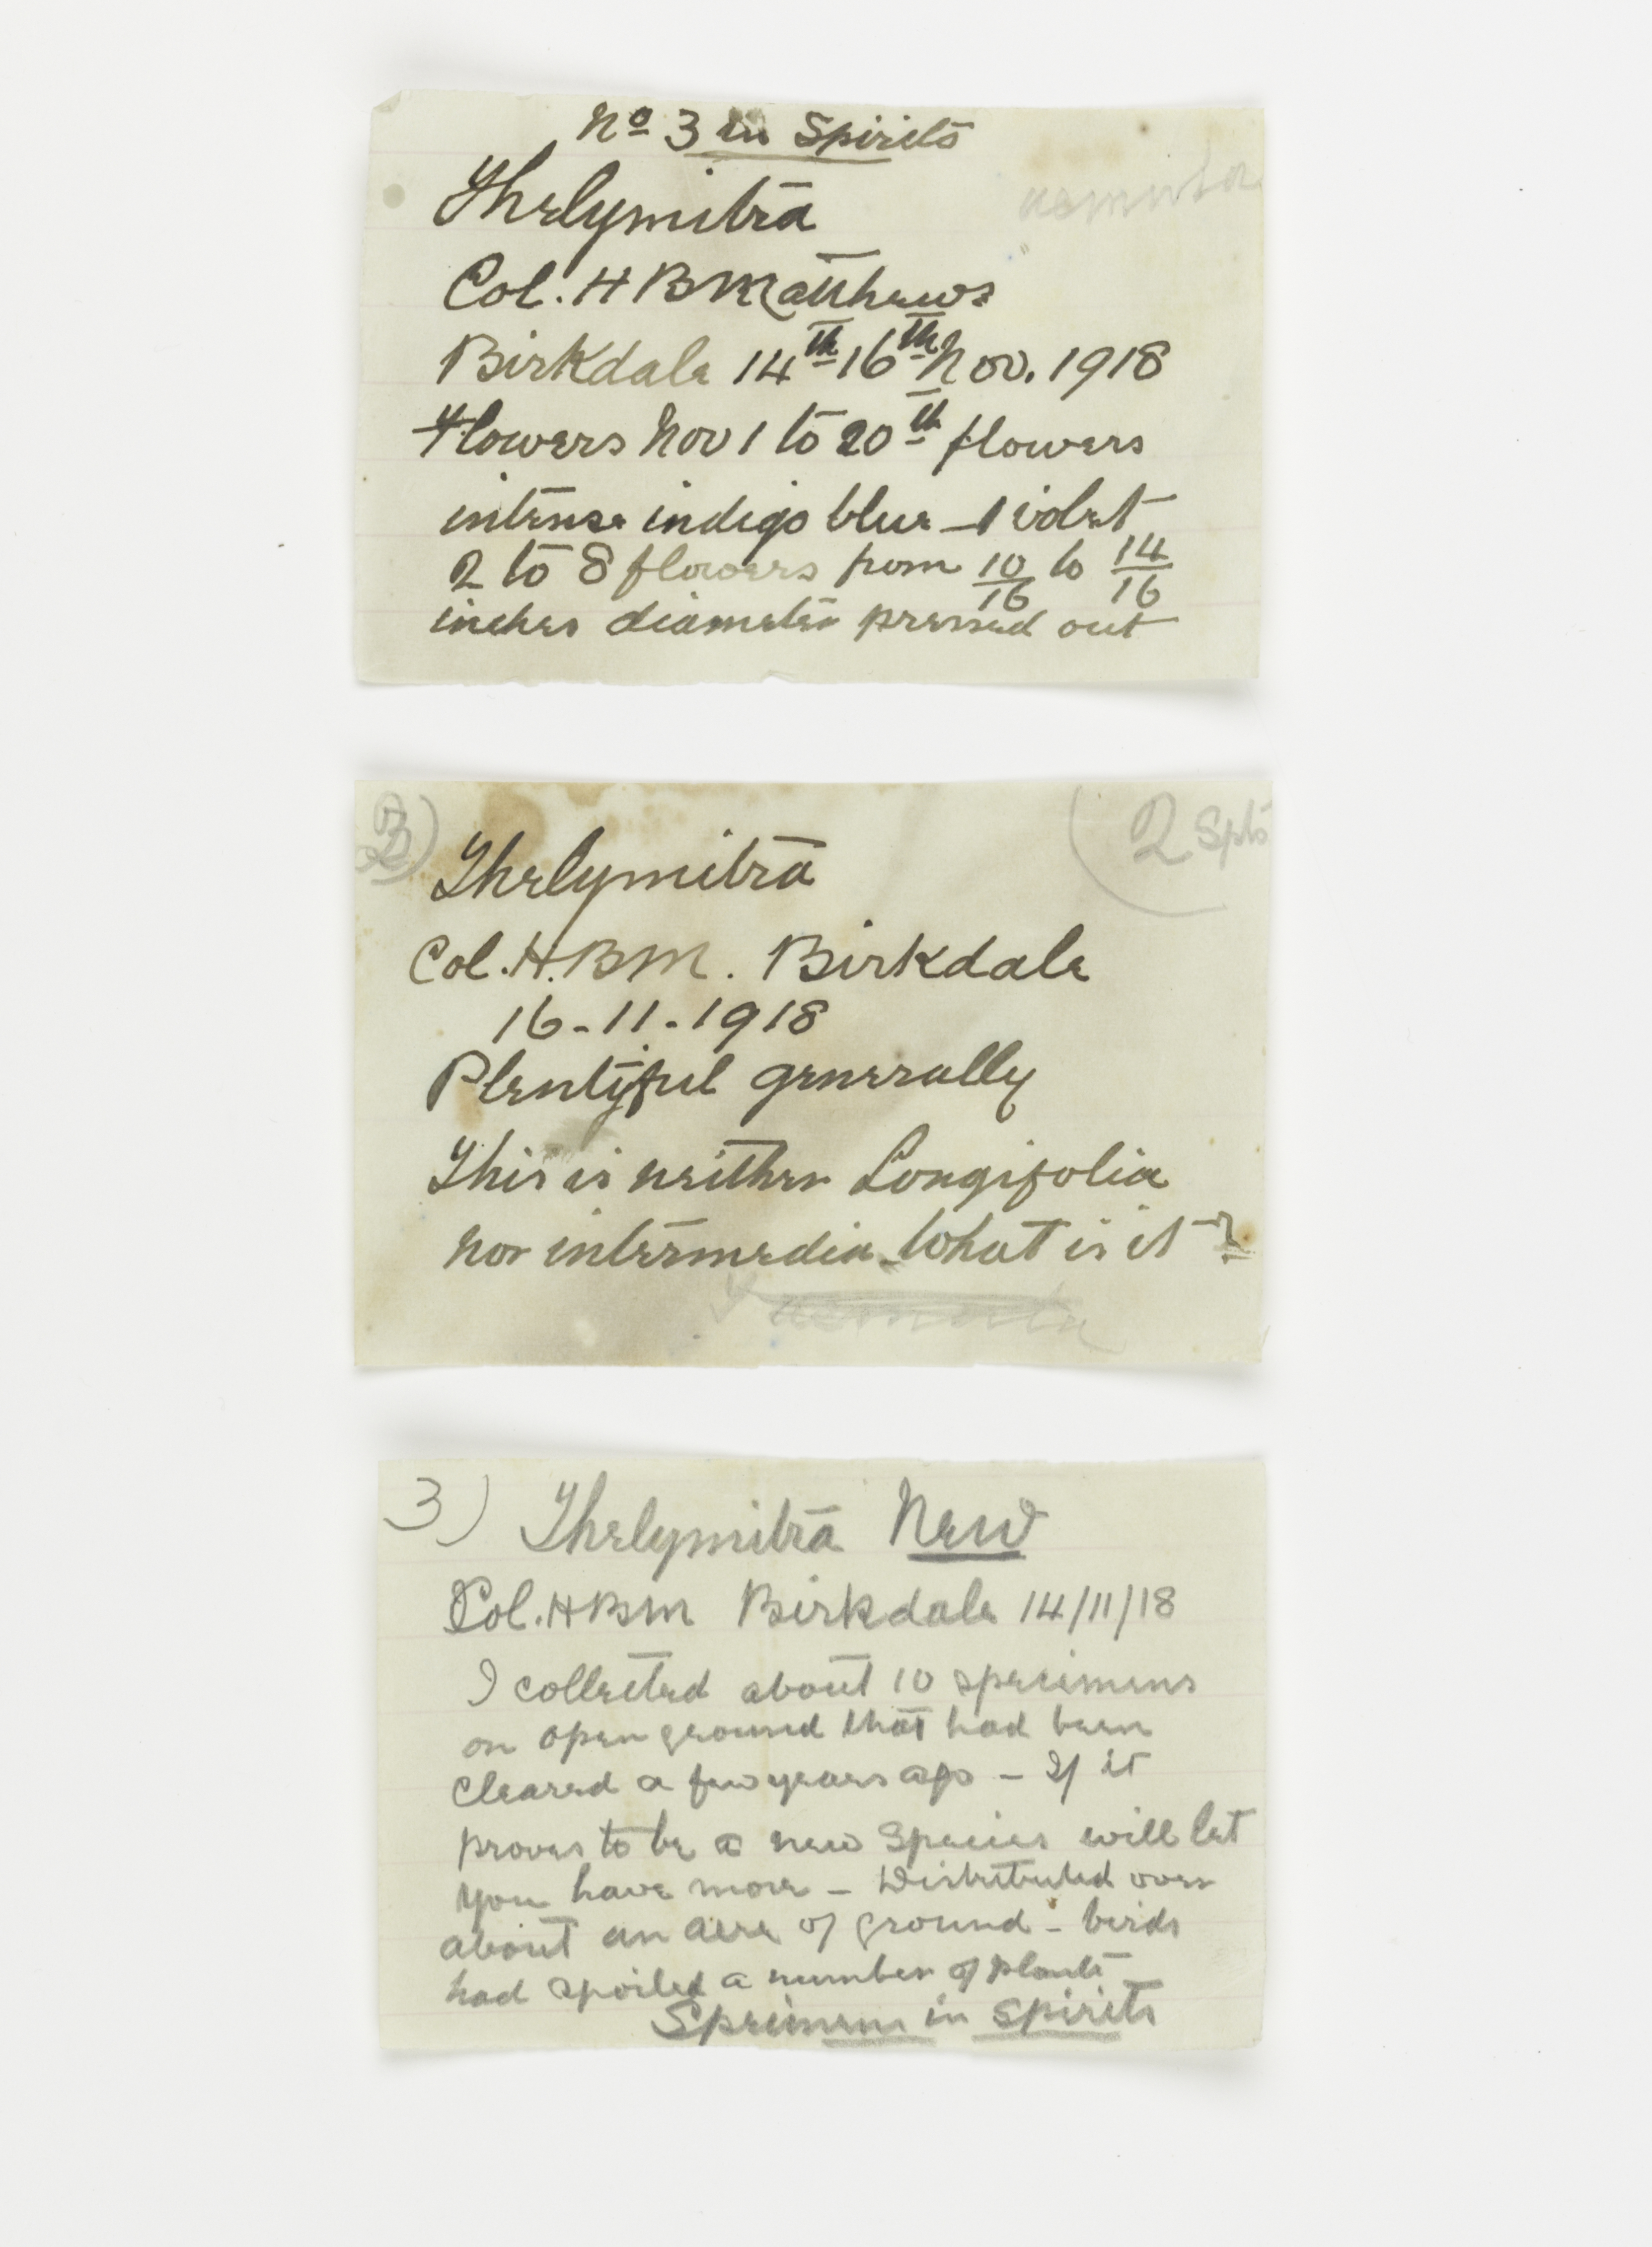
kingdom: Plantae
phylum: Tracheophyta
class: Liliopsida
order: Asparagales
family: Orchidaceae
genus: Thelymitra
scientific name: Thelymitra longifolia
